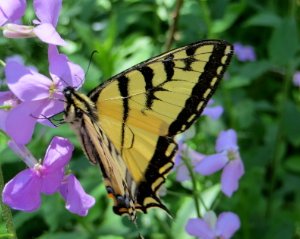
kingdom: Animalia
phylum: Arthropoda
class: Insecta
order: Lepidoptera
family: Papilionidae
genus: Pterourus
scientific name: Pterourus canadensis
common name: Canadian Tiger Swallowtail
